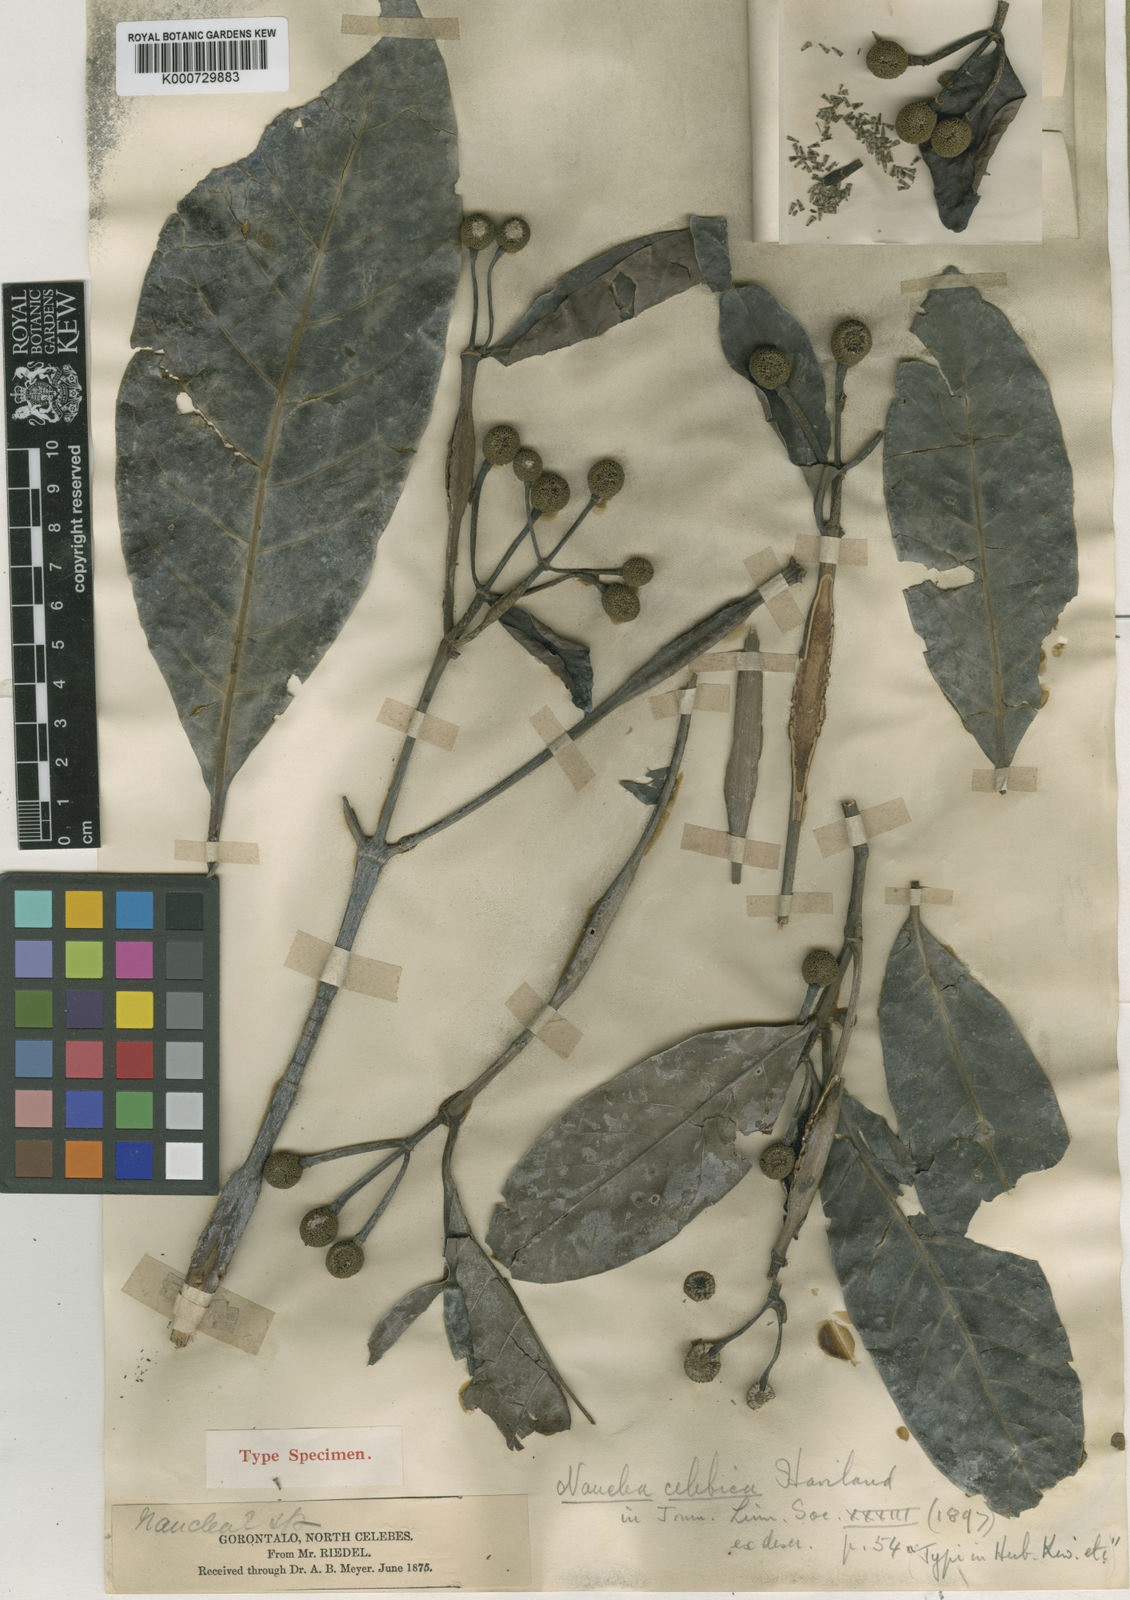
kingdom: Plantae
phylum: Tracheophyta
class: Magnoliopsida
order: Gentianales
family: Rubiaceae
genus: Neonauclea
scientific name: Neonauclea celebica
